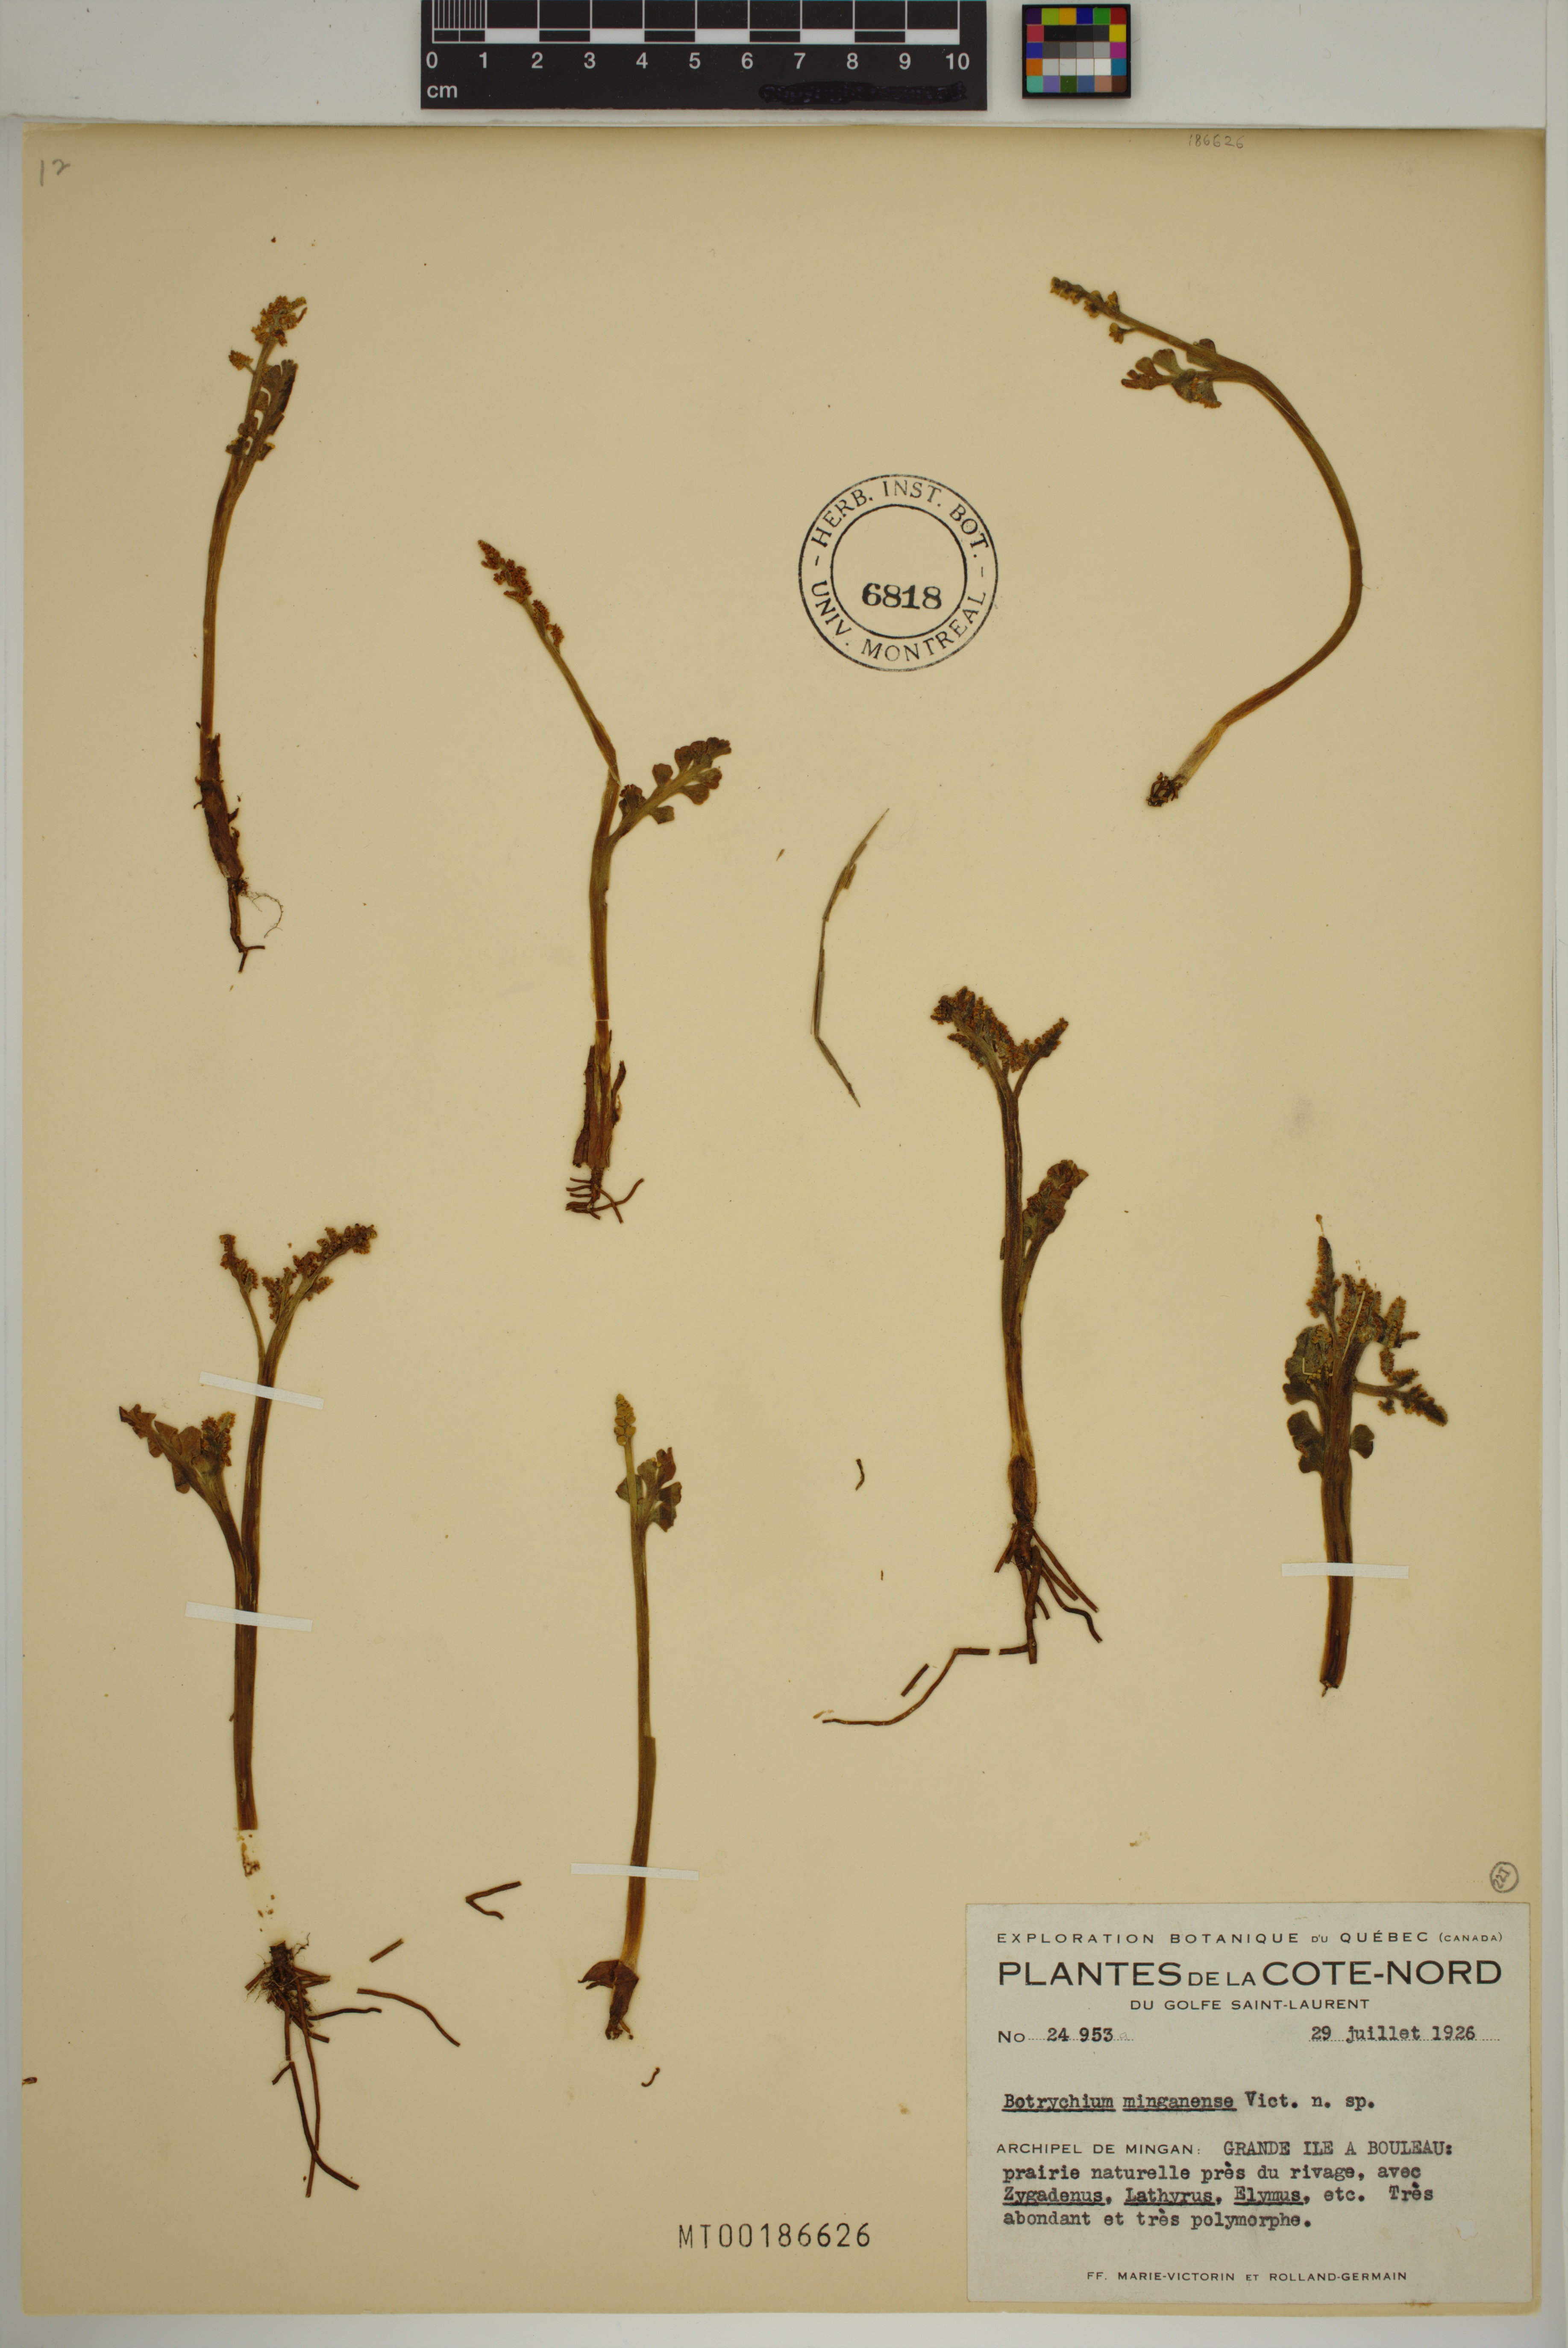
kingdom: Plantae
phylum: Tracheophyta
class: Polypodiopsida
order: Ophioglossales
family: Ophioglossaceae
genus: Botrychium
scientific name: Botrychium minganense
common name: Mingan grapefern
